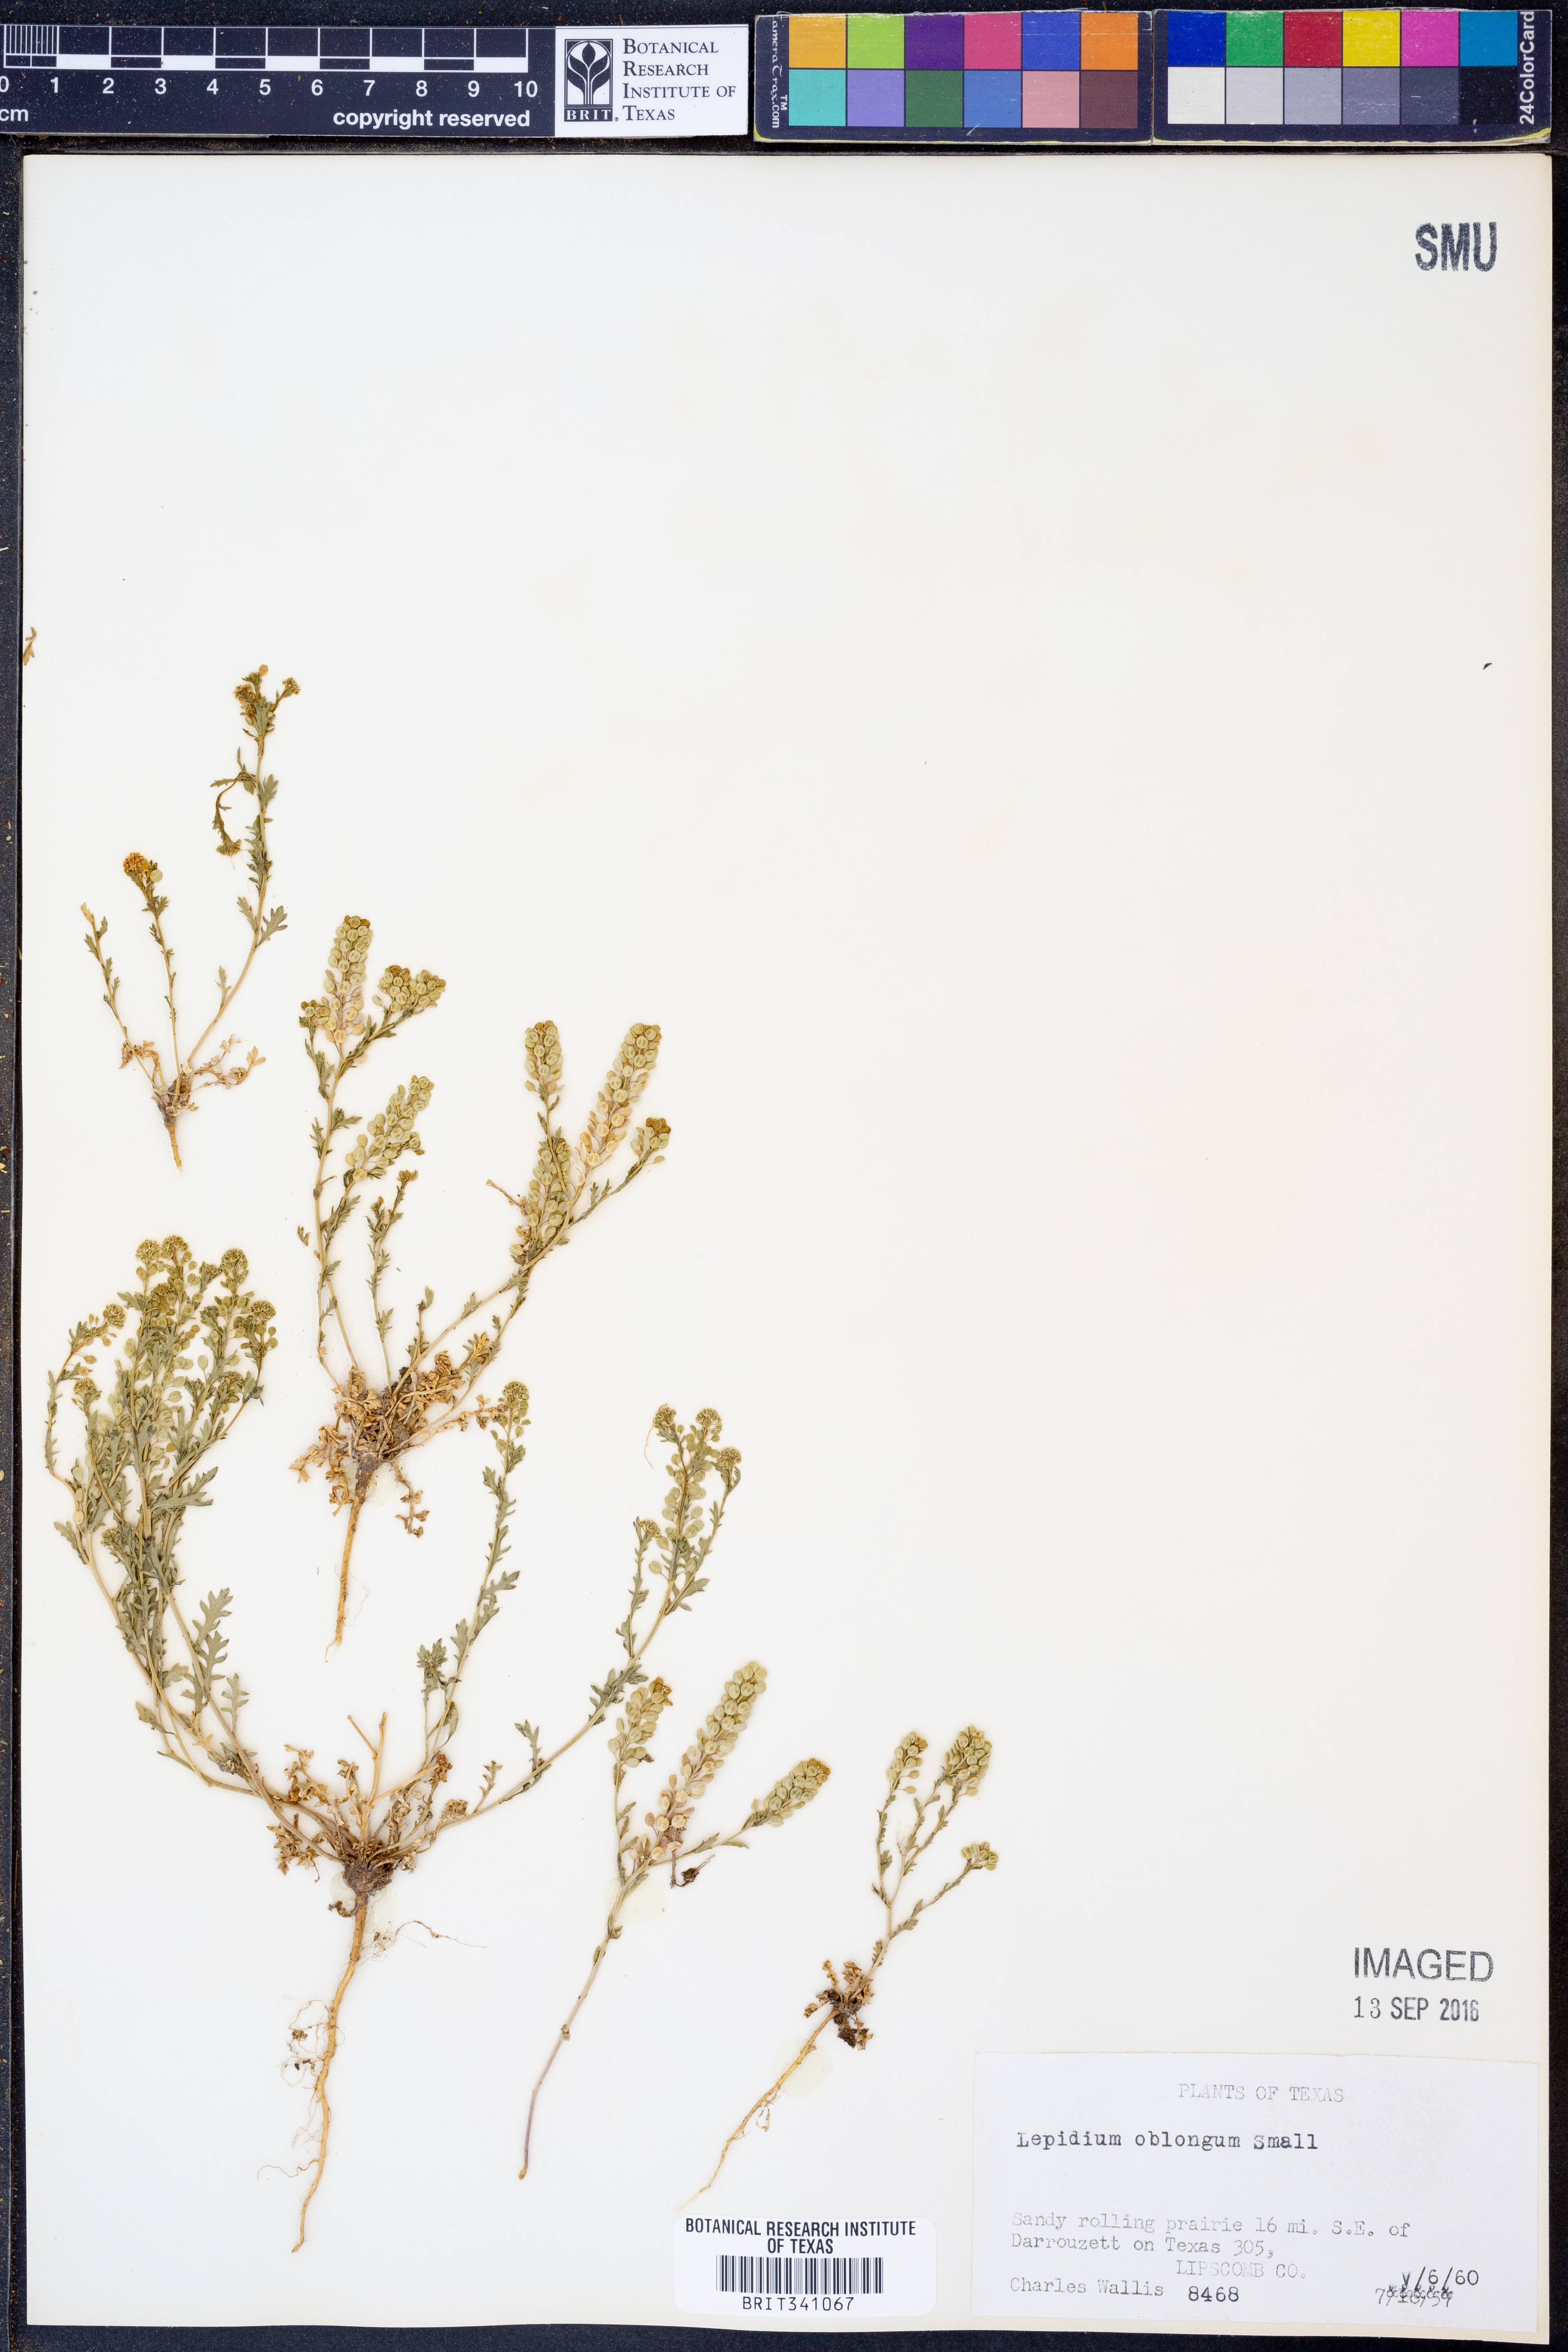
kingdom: Plantae
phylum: Tracheophyta
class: Magnoliopsida
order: Brassicales
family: Brassicaceae
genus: Lepidium
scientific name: Lepidium oblongum
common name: Veiny pepperweed
